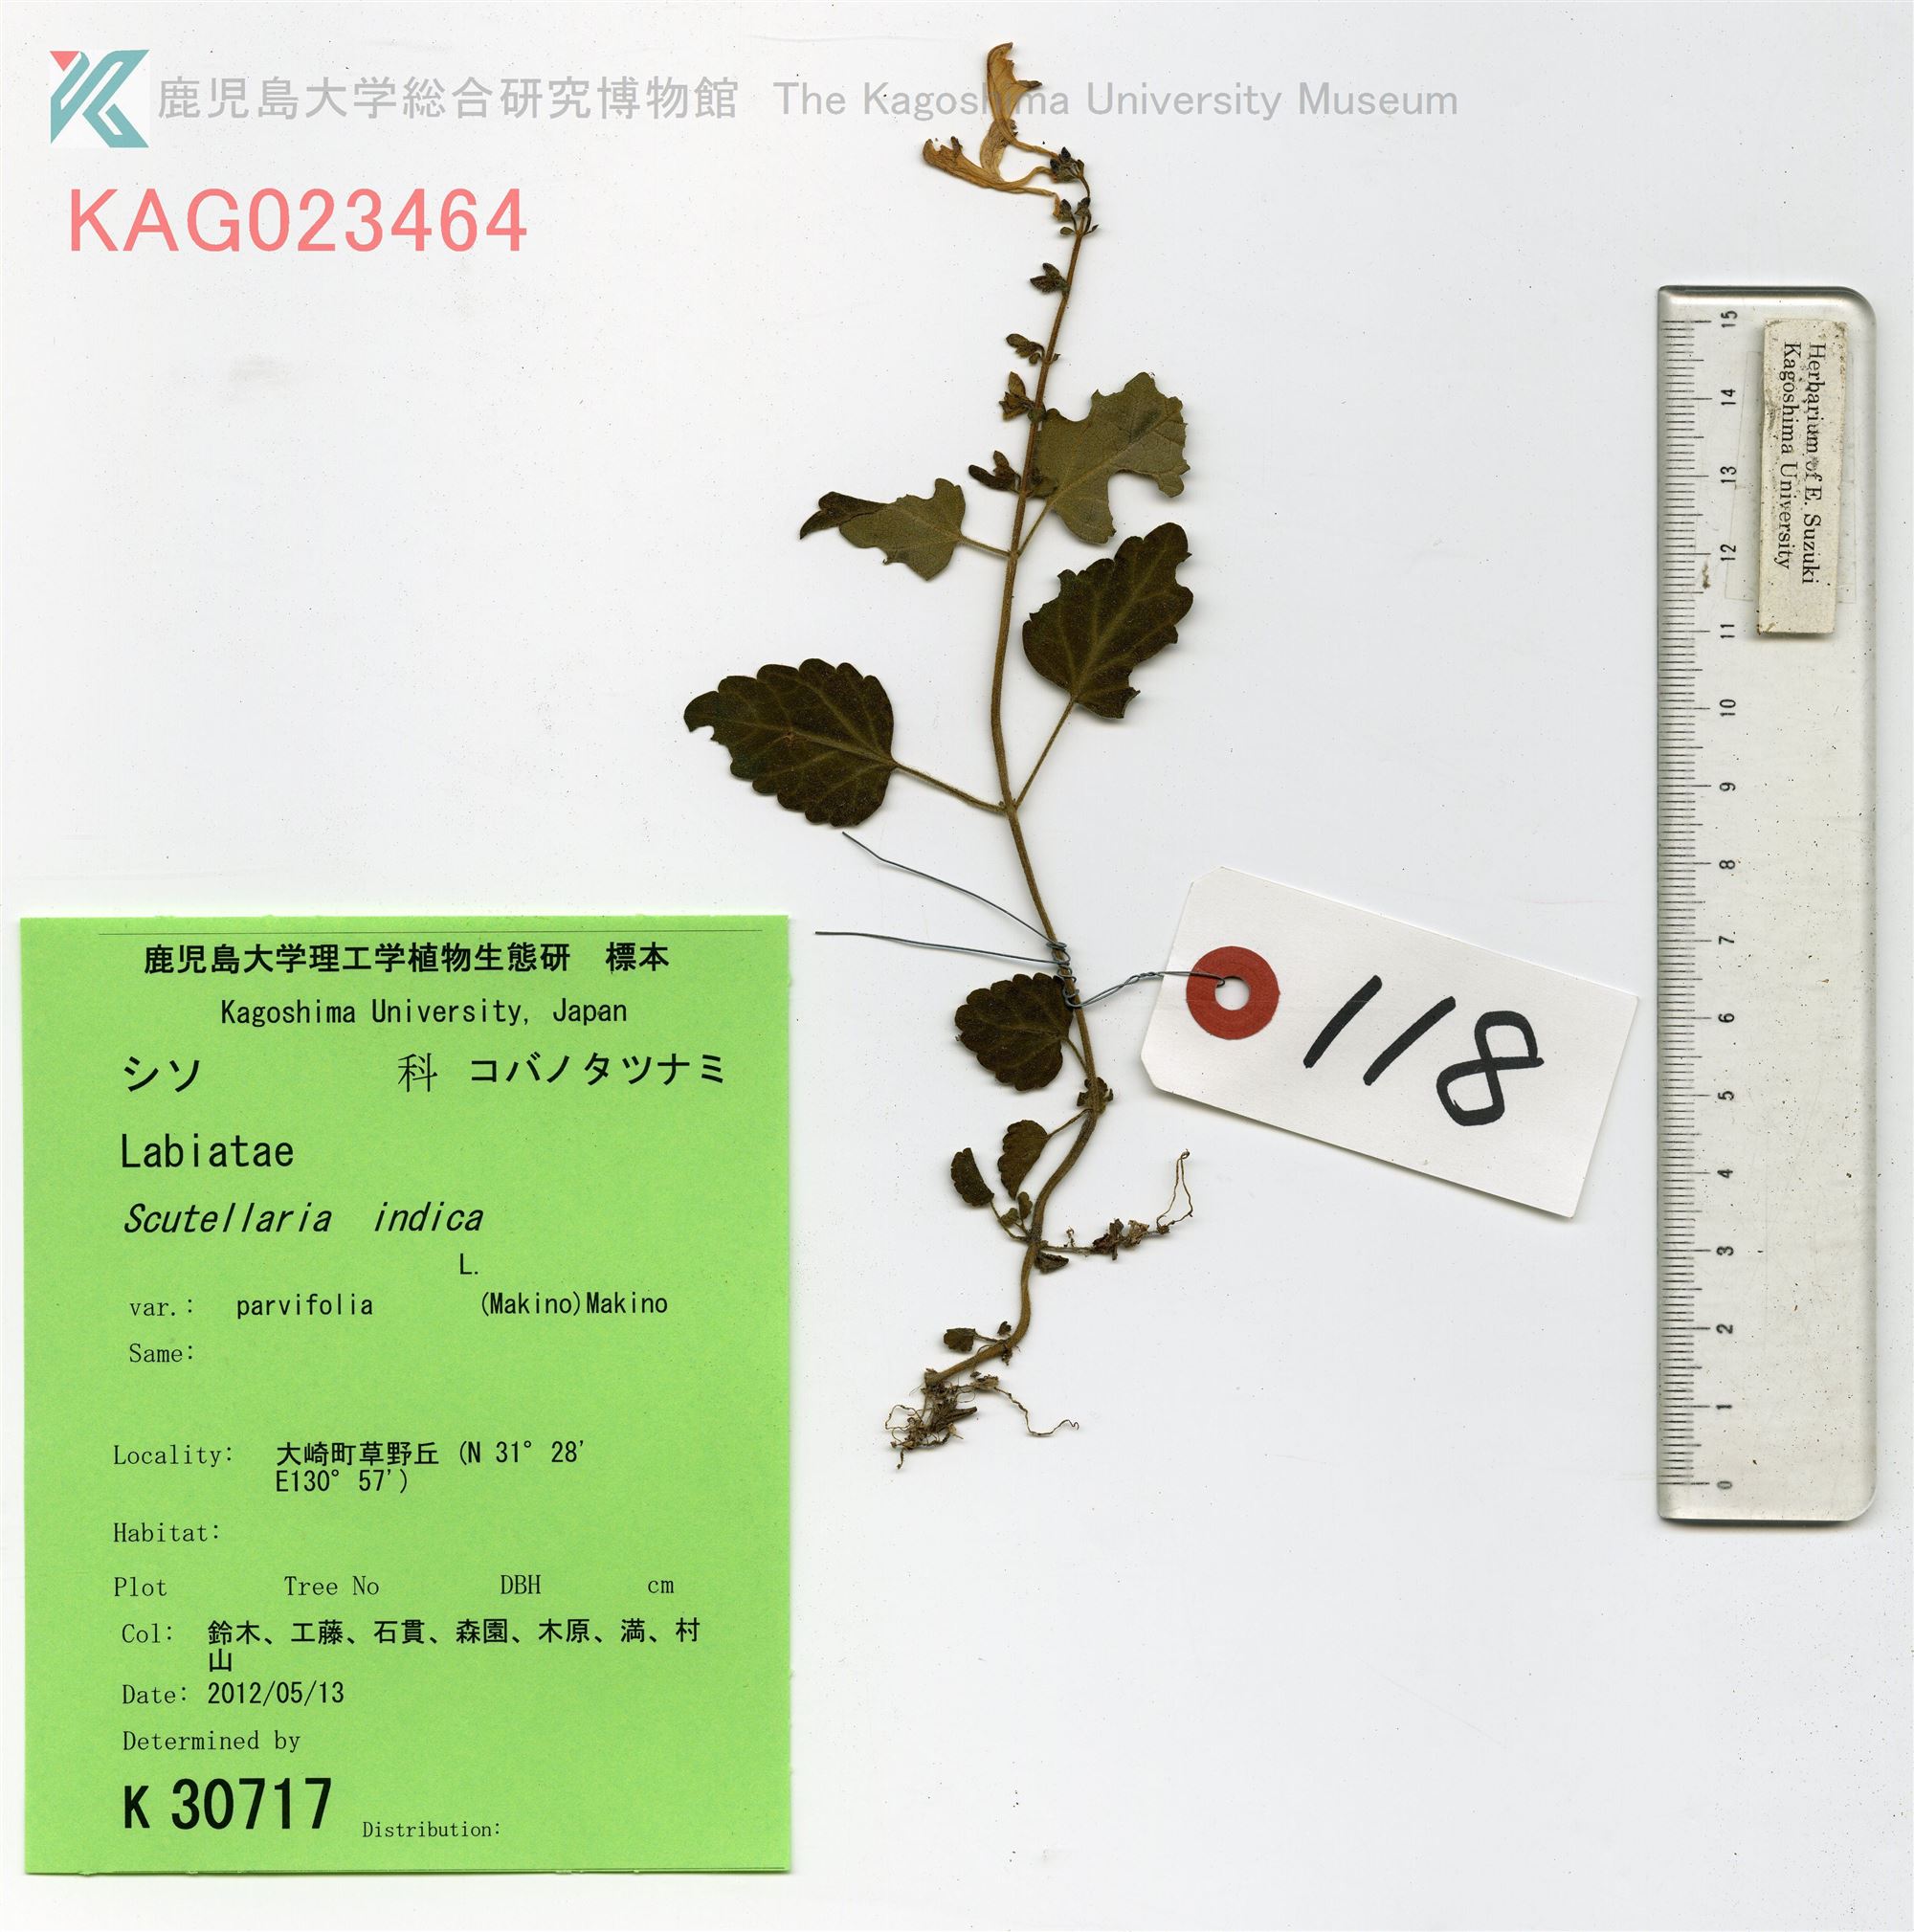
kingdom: Plantae
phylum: Tracheophyta
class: Magnoliopsida
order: Lamiales
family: Lamiaceae
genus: Scutellaria
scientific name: Scutellaria indica
